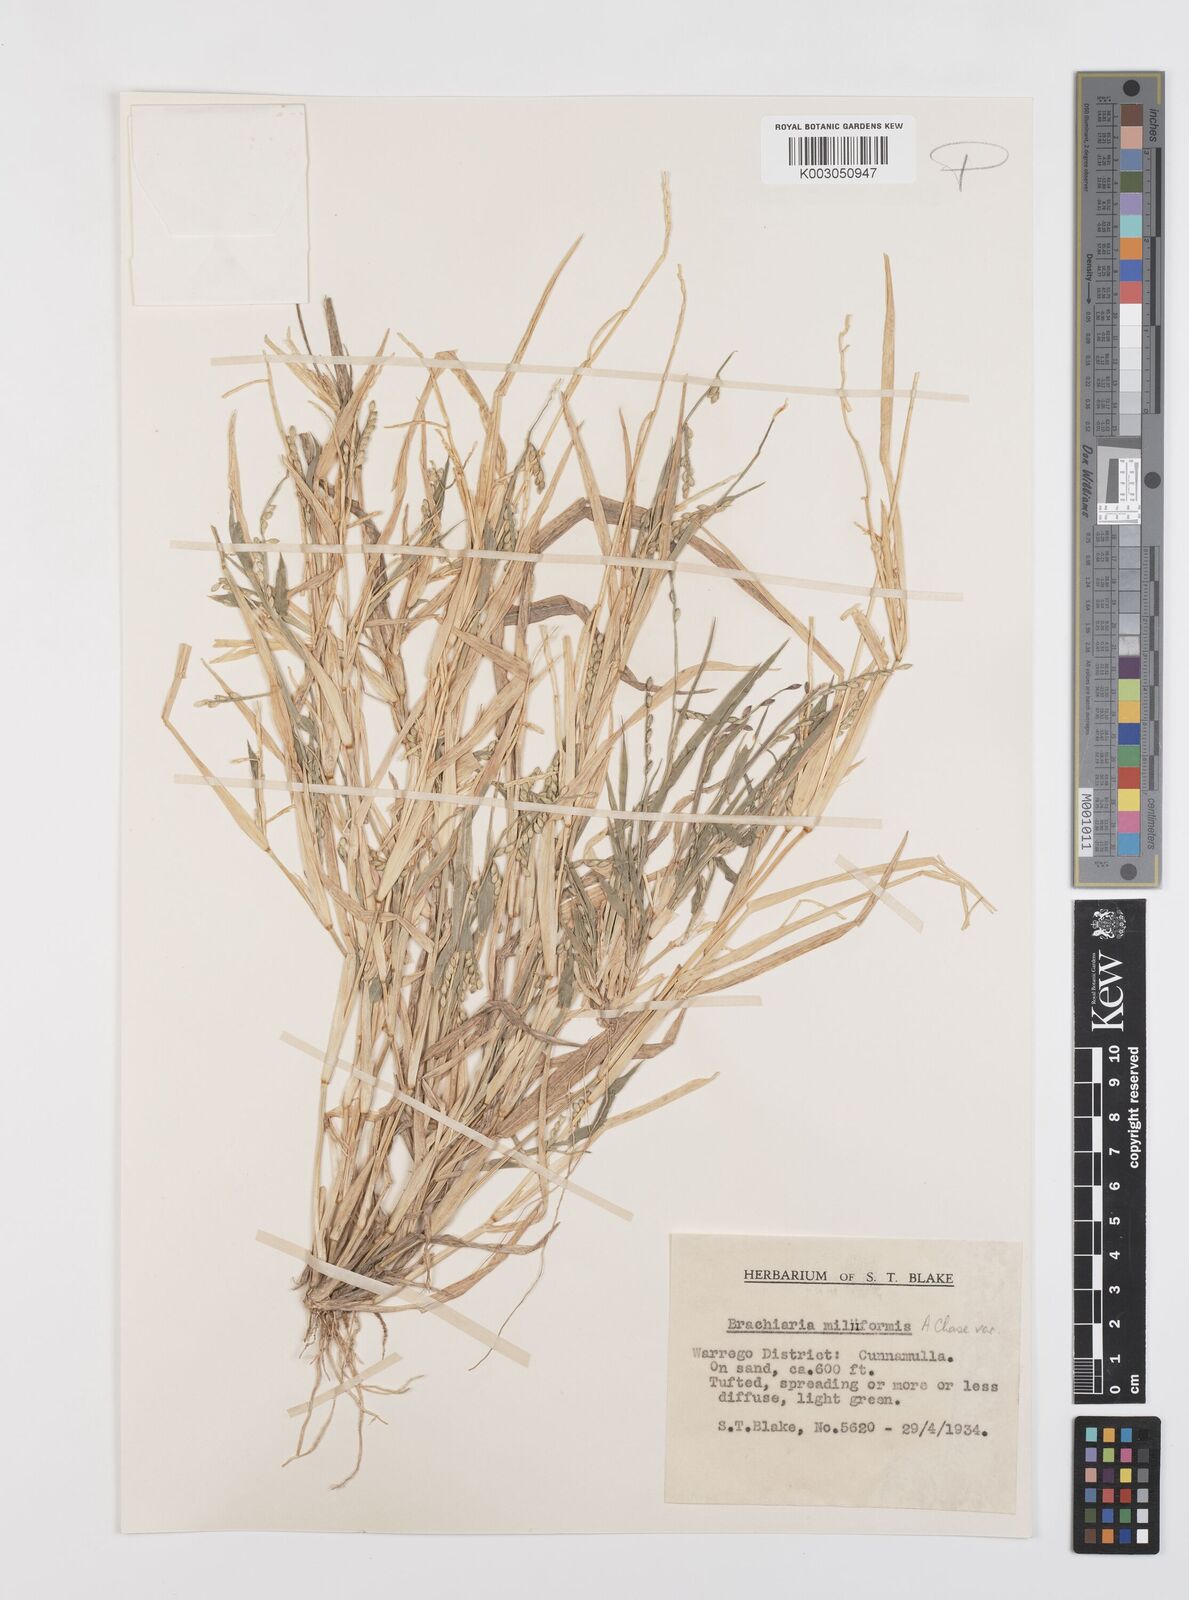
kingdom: Plantae
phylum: Tracheophyta
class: Liliopsida
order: Poales
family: Poaceae
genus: Urochloa
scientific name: Urochloa subquadripara
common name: Armgrass millet
